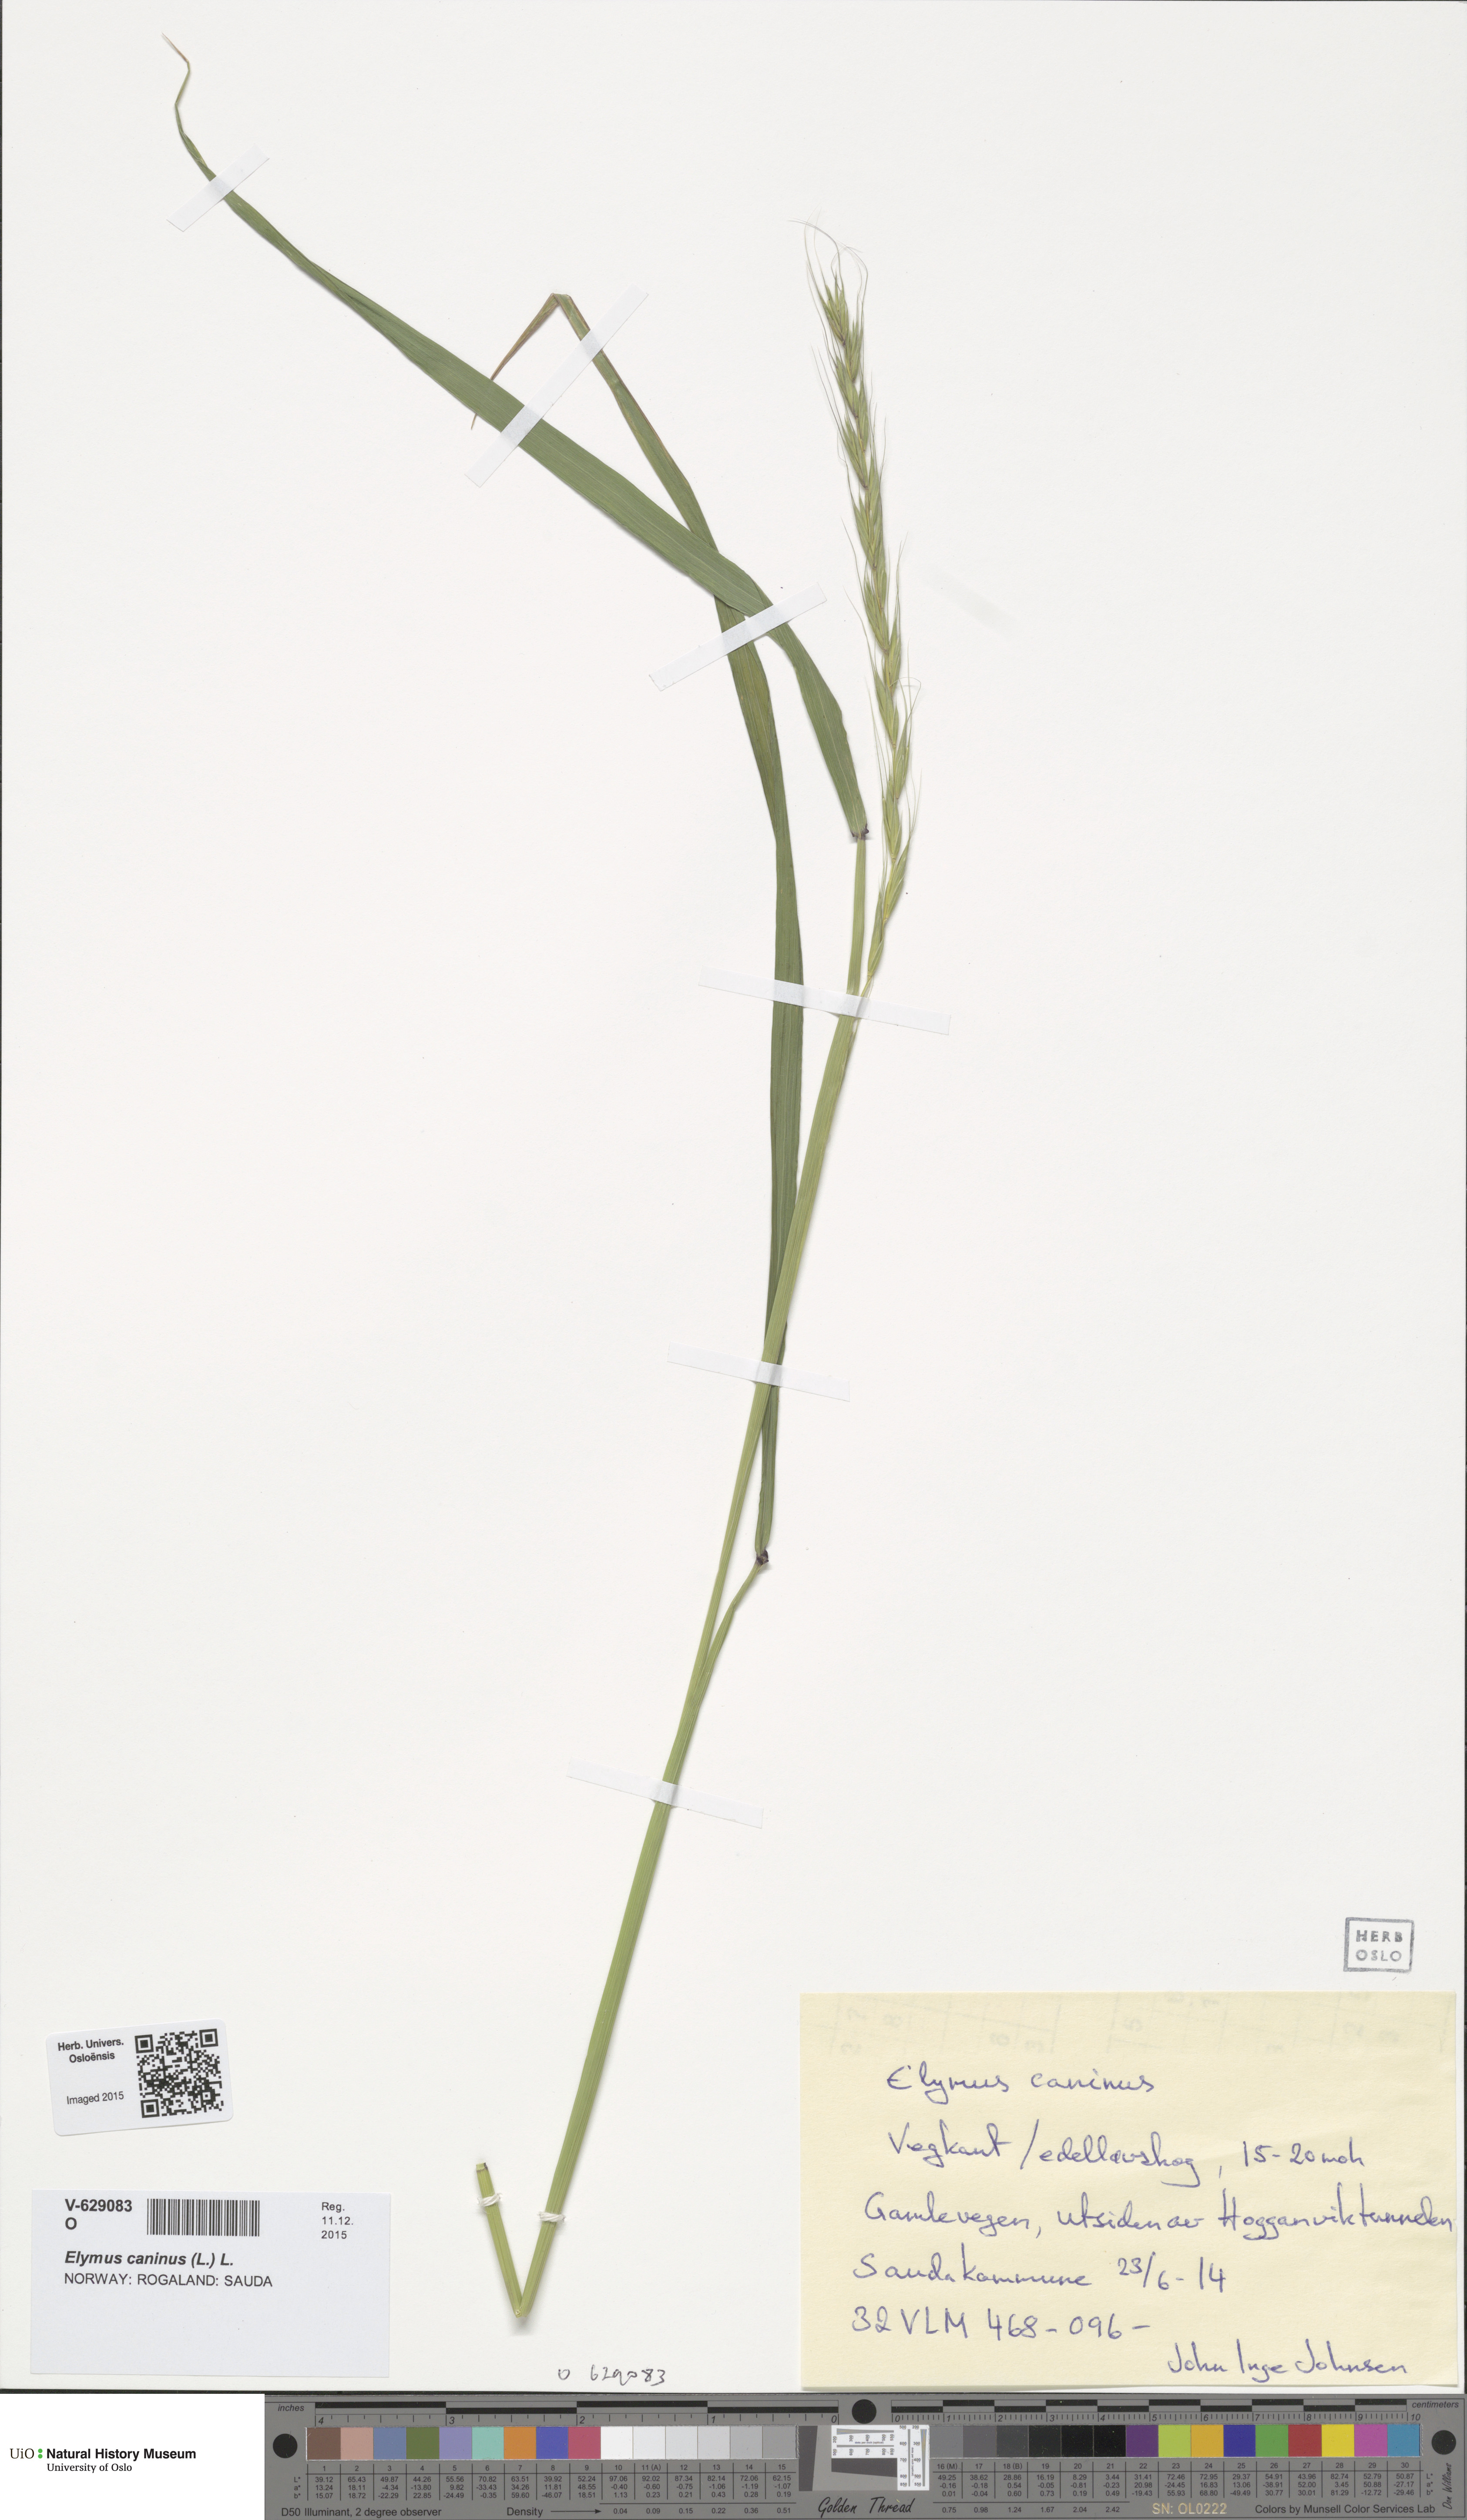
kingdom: Plantae
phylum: Tracheophyta
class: Liliopsida
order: Poales
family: Poaceae
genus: Elymus
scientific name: Elymus caninus
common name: Bearded couch
